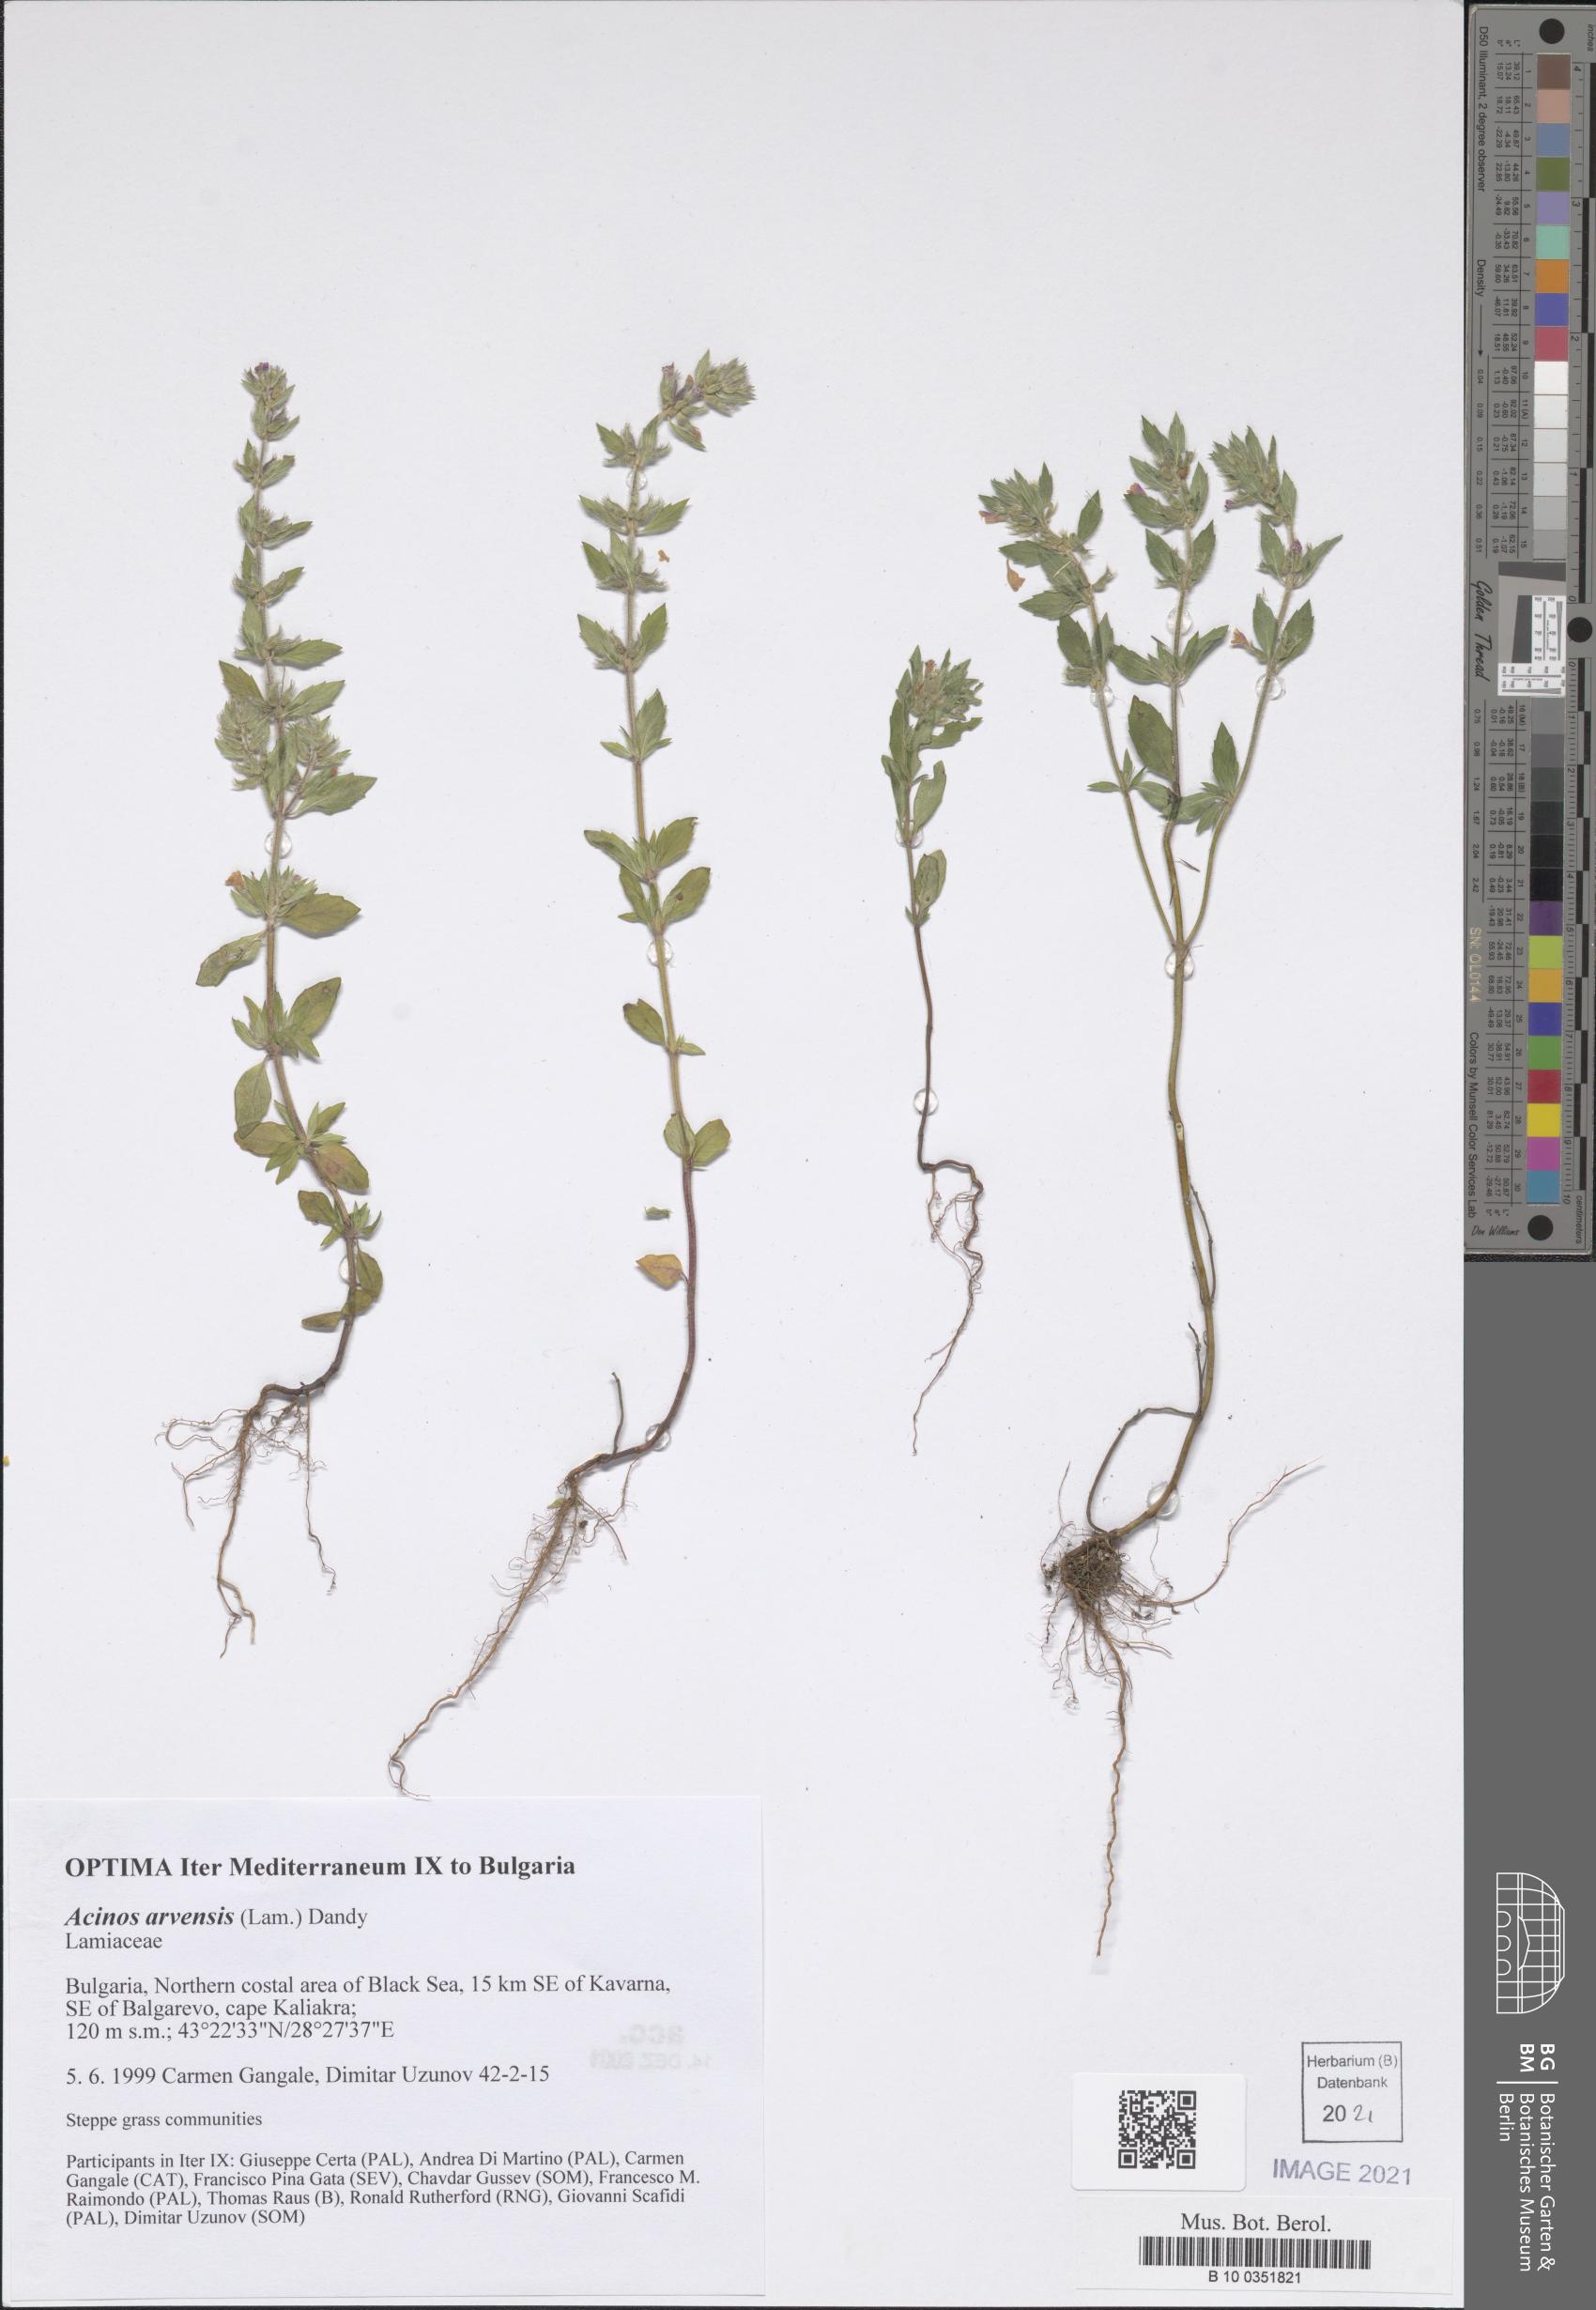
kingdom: Plantae
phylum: Tracheophyta
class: Magnoliopsida
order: Lamiales
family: Lamiaceae
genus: Clinopodium
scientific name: Clinopodium acinos
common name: Basil thyme
